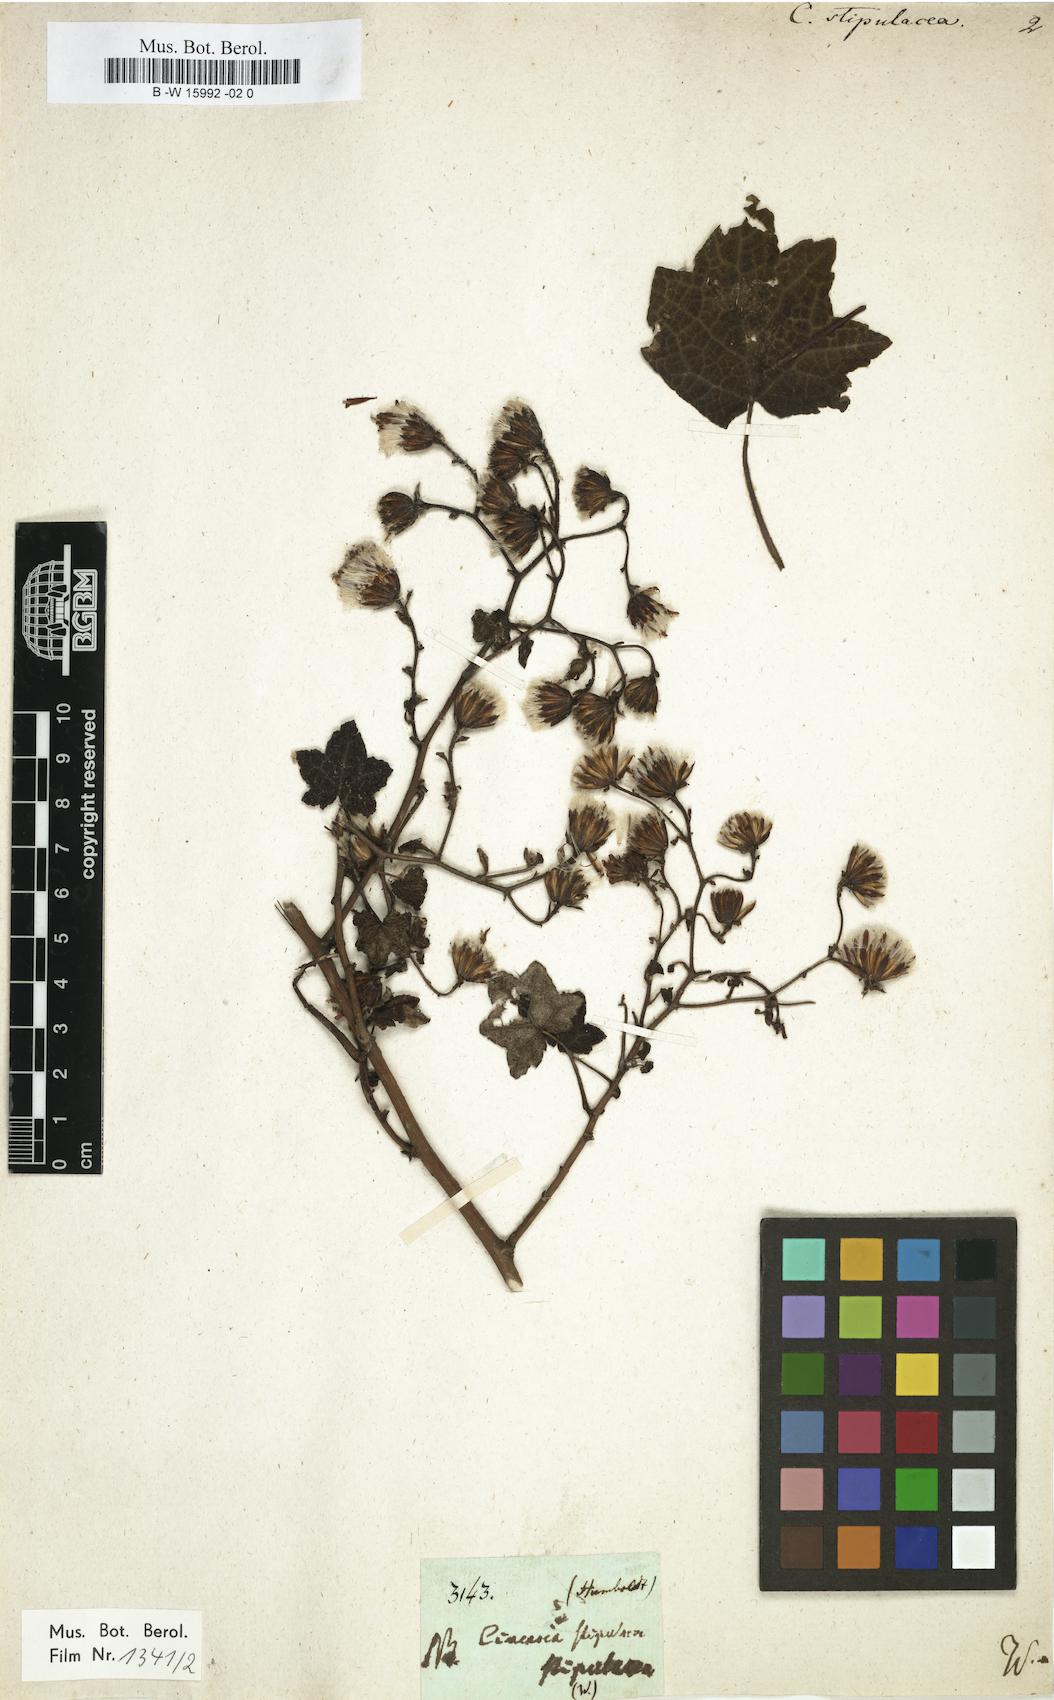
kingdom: Plantae
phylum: Tracheophyta
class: Magnoliopsida
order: Asterales
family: Asteraceae
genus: Jungia
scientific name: Jungia rugosa
